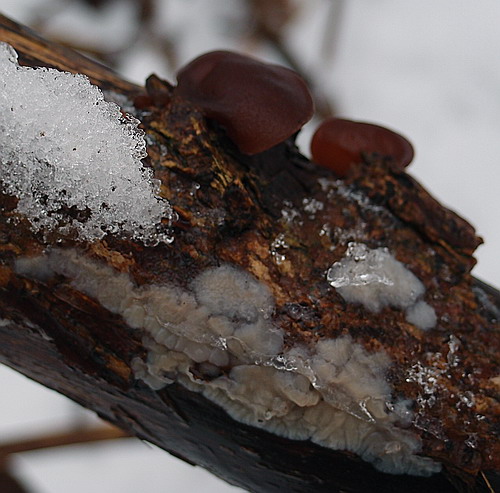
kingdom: Fungi
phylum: Basidiomycota
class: Agaricomycetes
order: Auriculariales
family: Auriculariaceae
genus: Exidia
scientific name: Exidia thuretiana
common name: hvidlig bævretop
